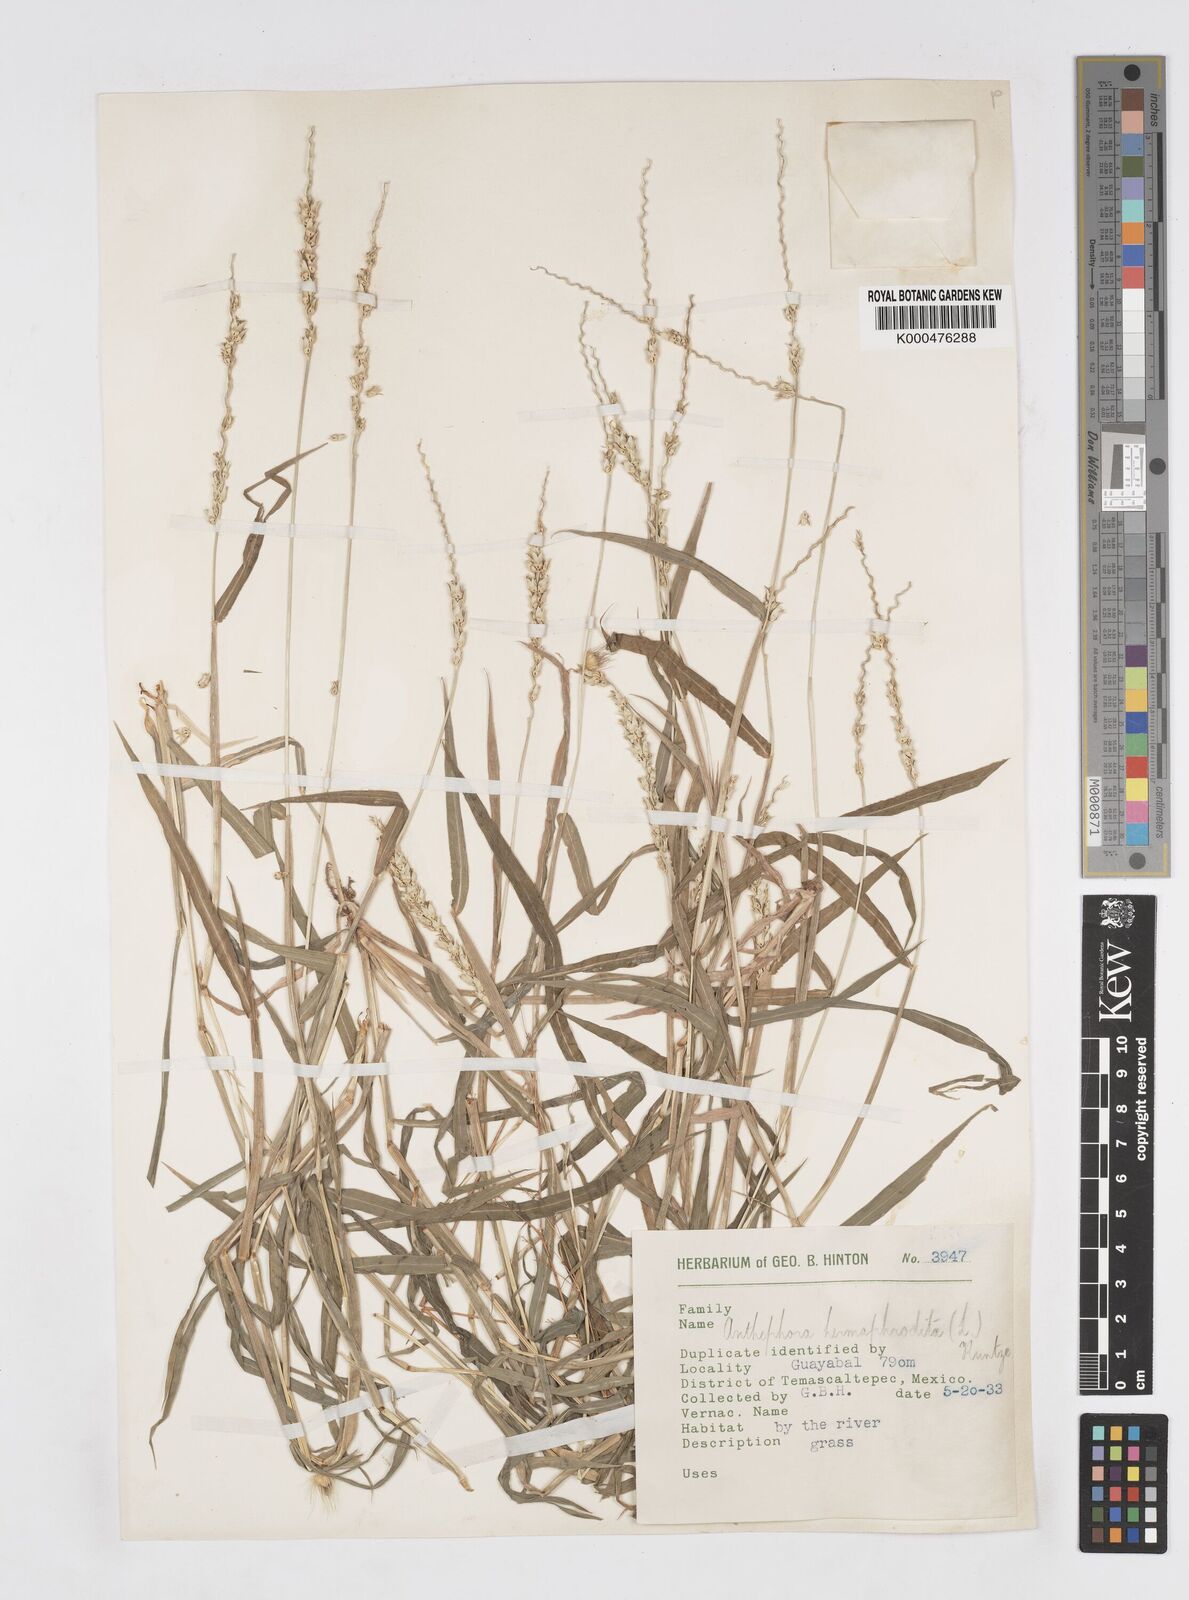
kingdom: Plantae
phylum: Tracheophyta
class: Liliopsida
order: Poales
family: Poaceae
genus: Anthephora
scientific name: Anthephora hermaphrodita
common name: Oldfield grass
